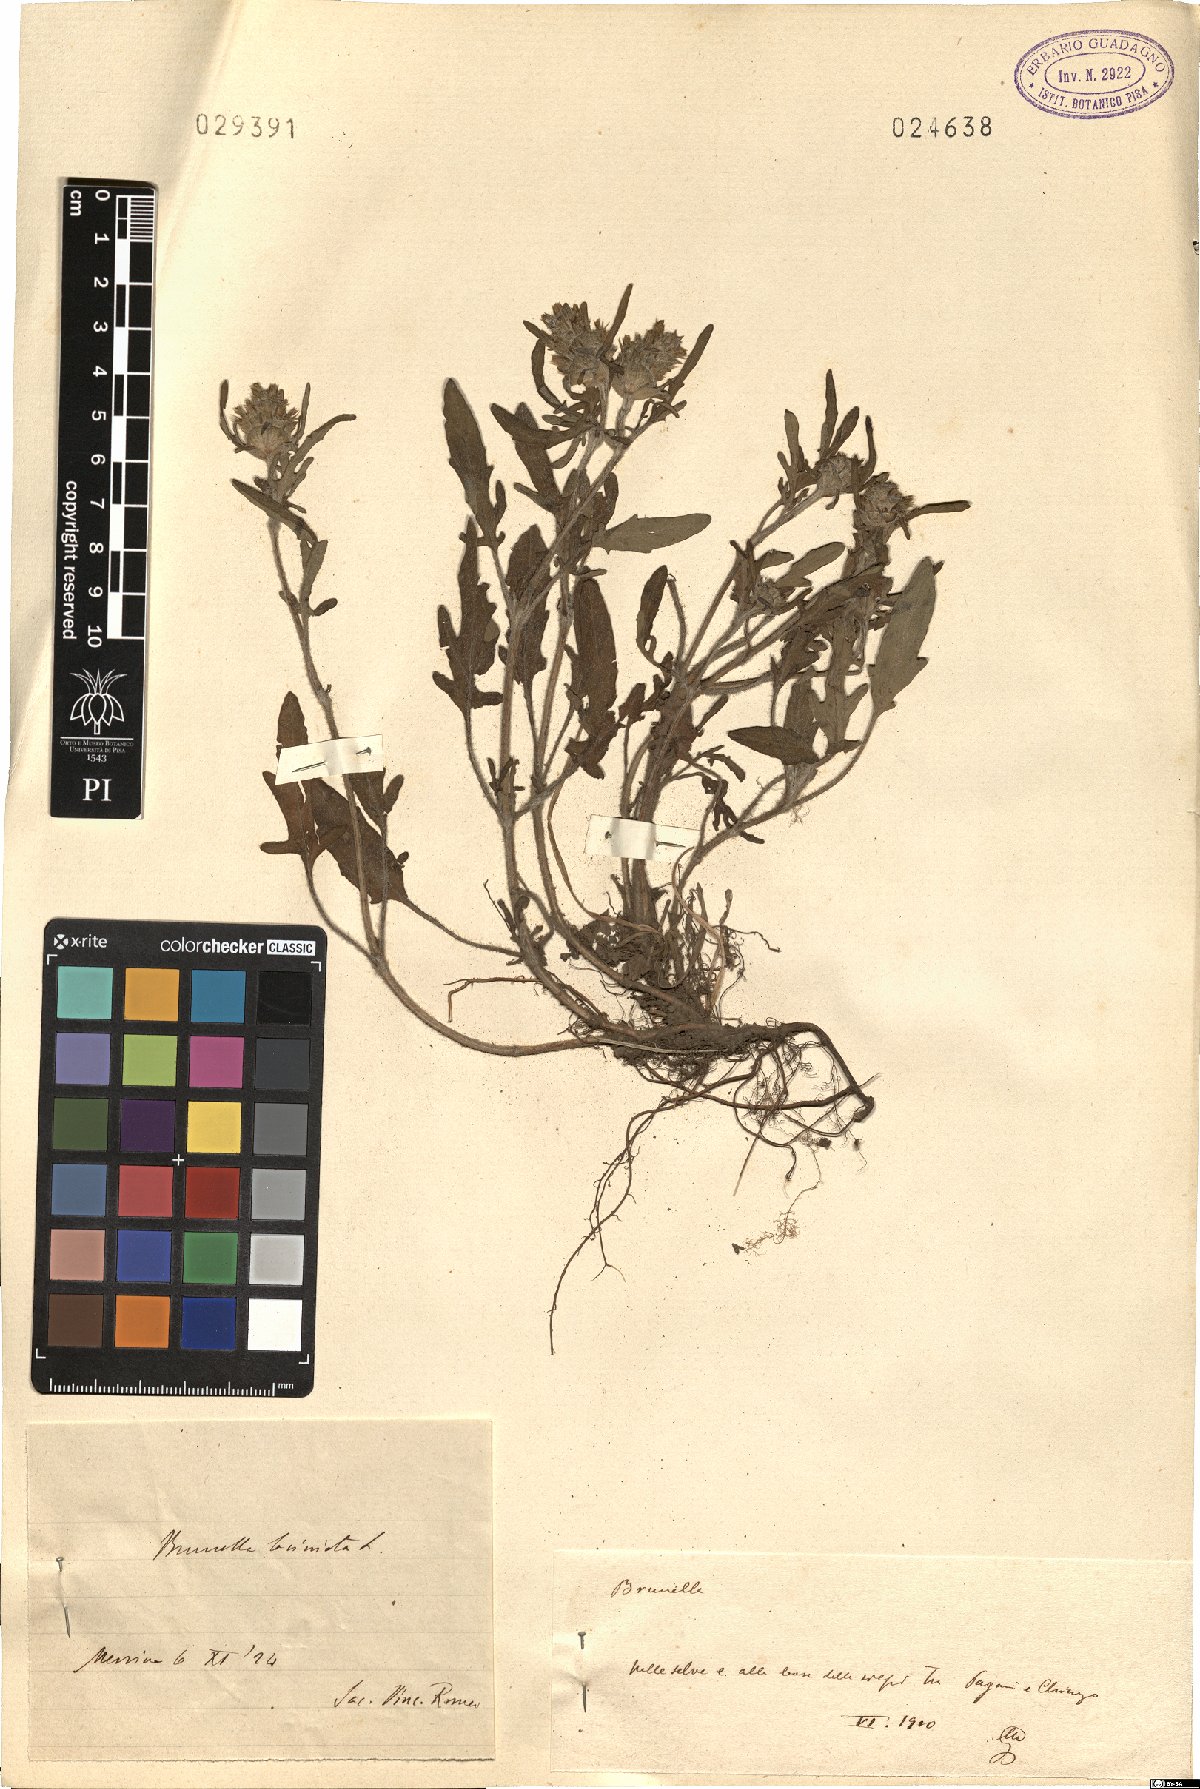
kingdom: Plantae
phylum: Tracheophyta
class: Magnoliopsida
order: Lamiales
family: Lamiaceae
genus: Prunella
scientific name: Prunella laciniata
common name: Cut-leaved selfheal
